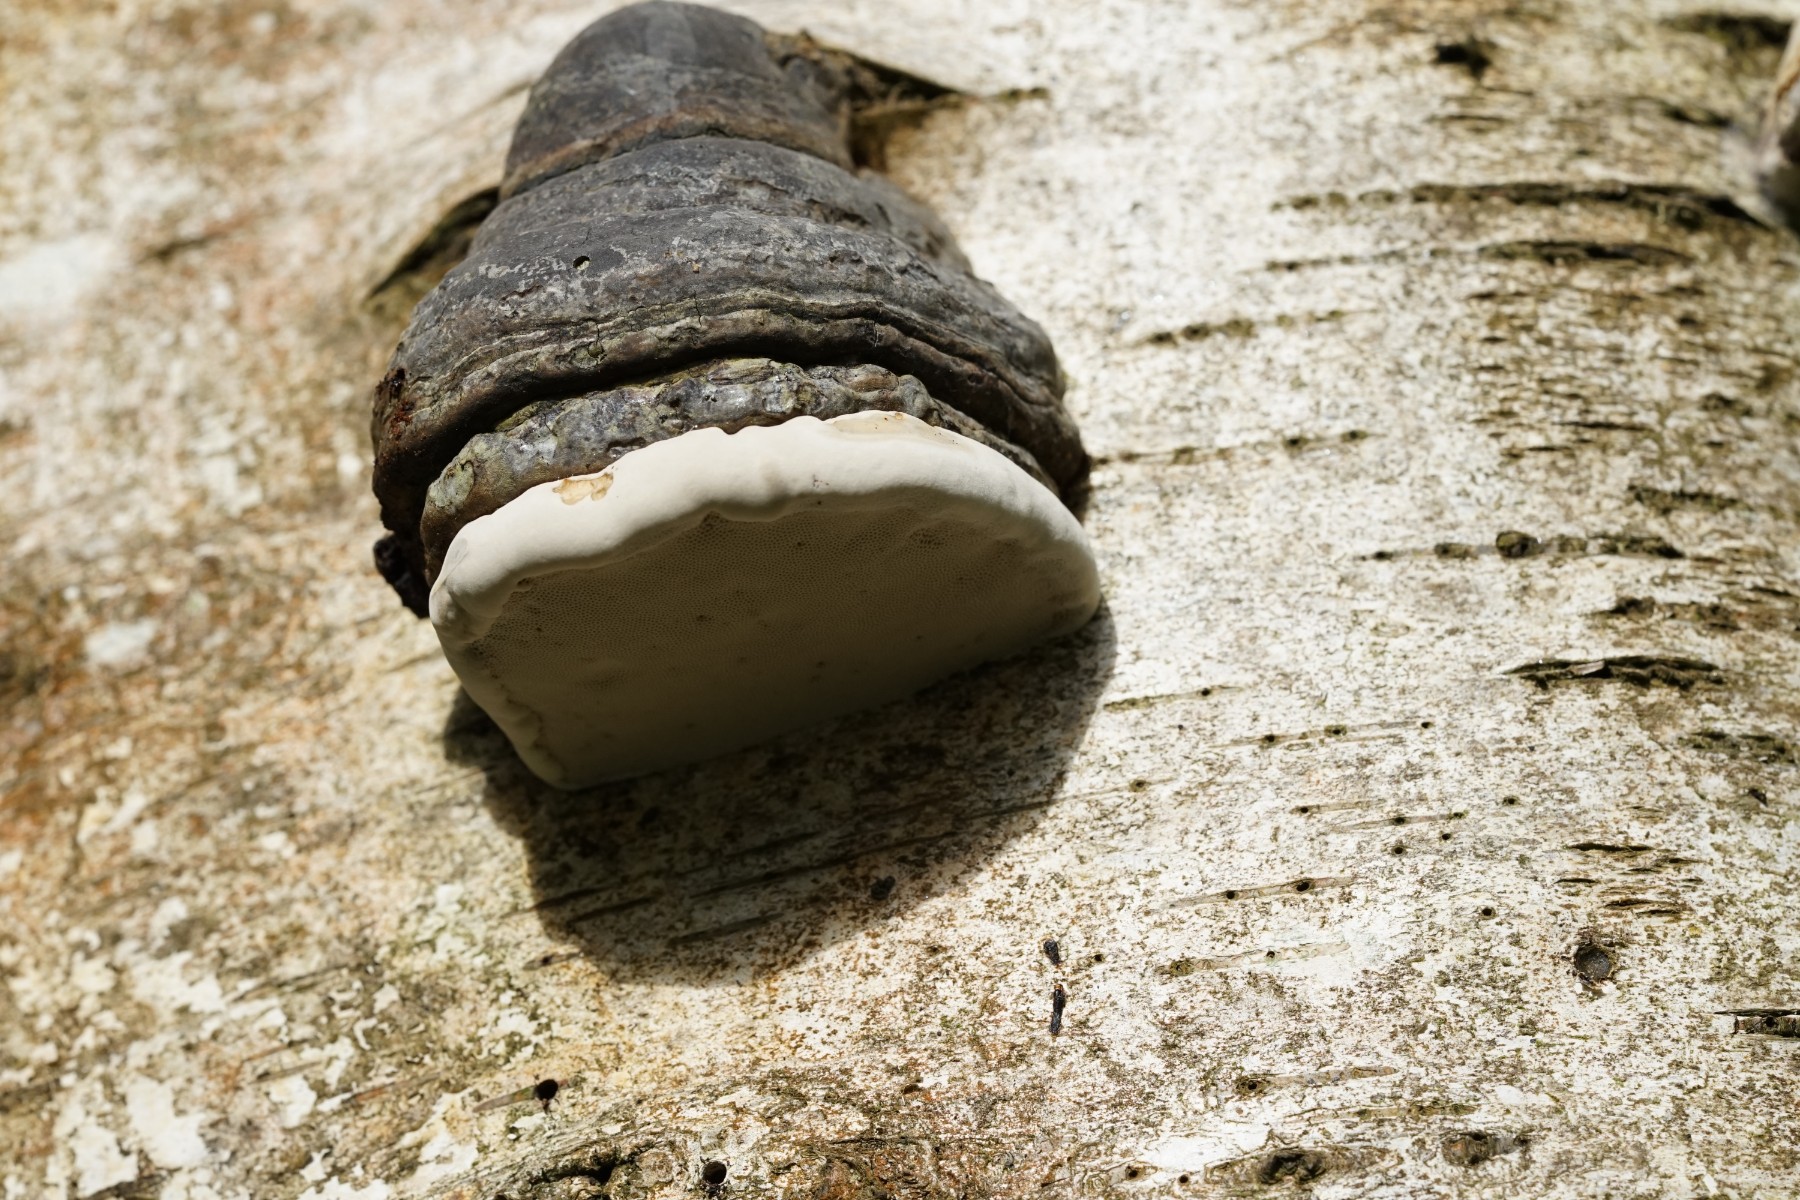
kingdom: Fungi
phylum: Basidiomycota
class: Agaricomycetes
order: Polyporales
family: Polyporaceae
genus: Fomes
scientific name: Fomes fomentarius
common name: tøndersvamp
